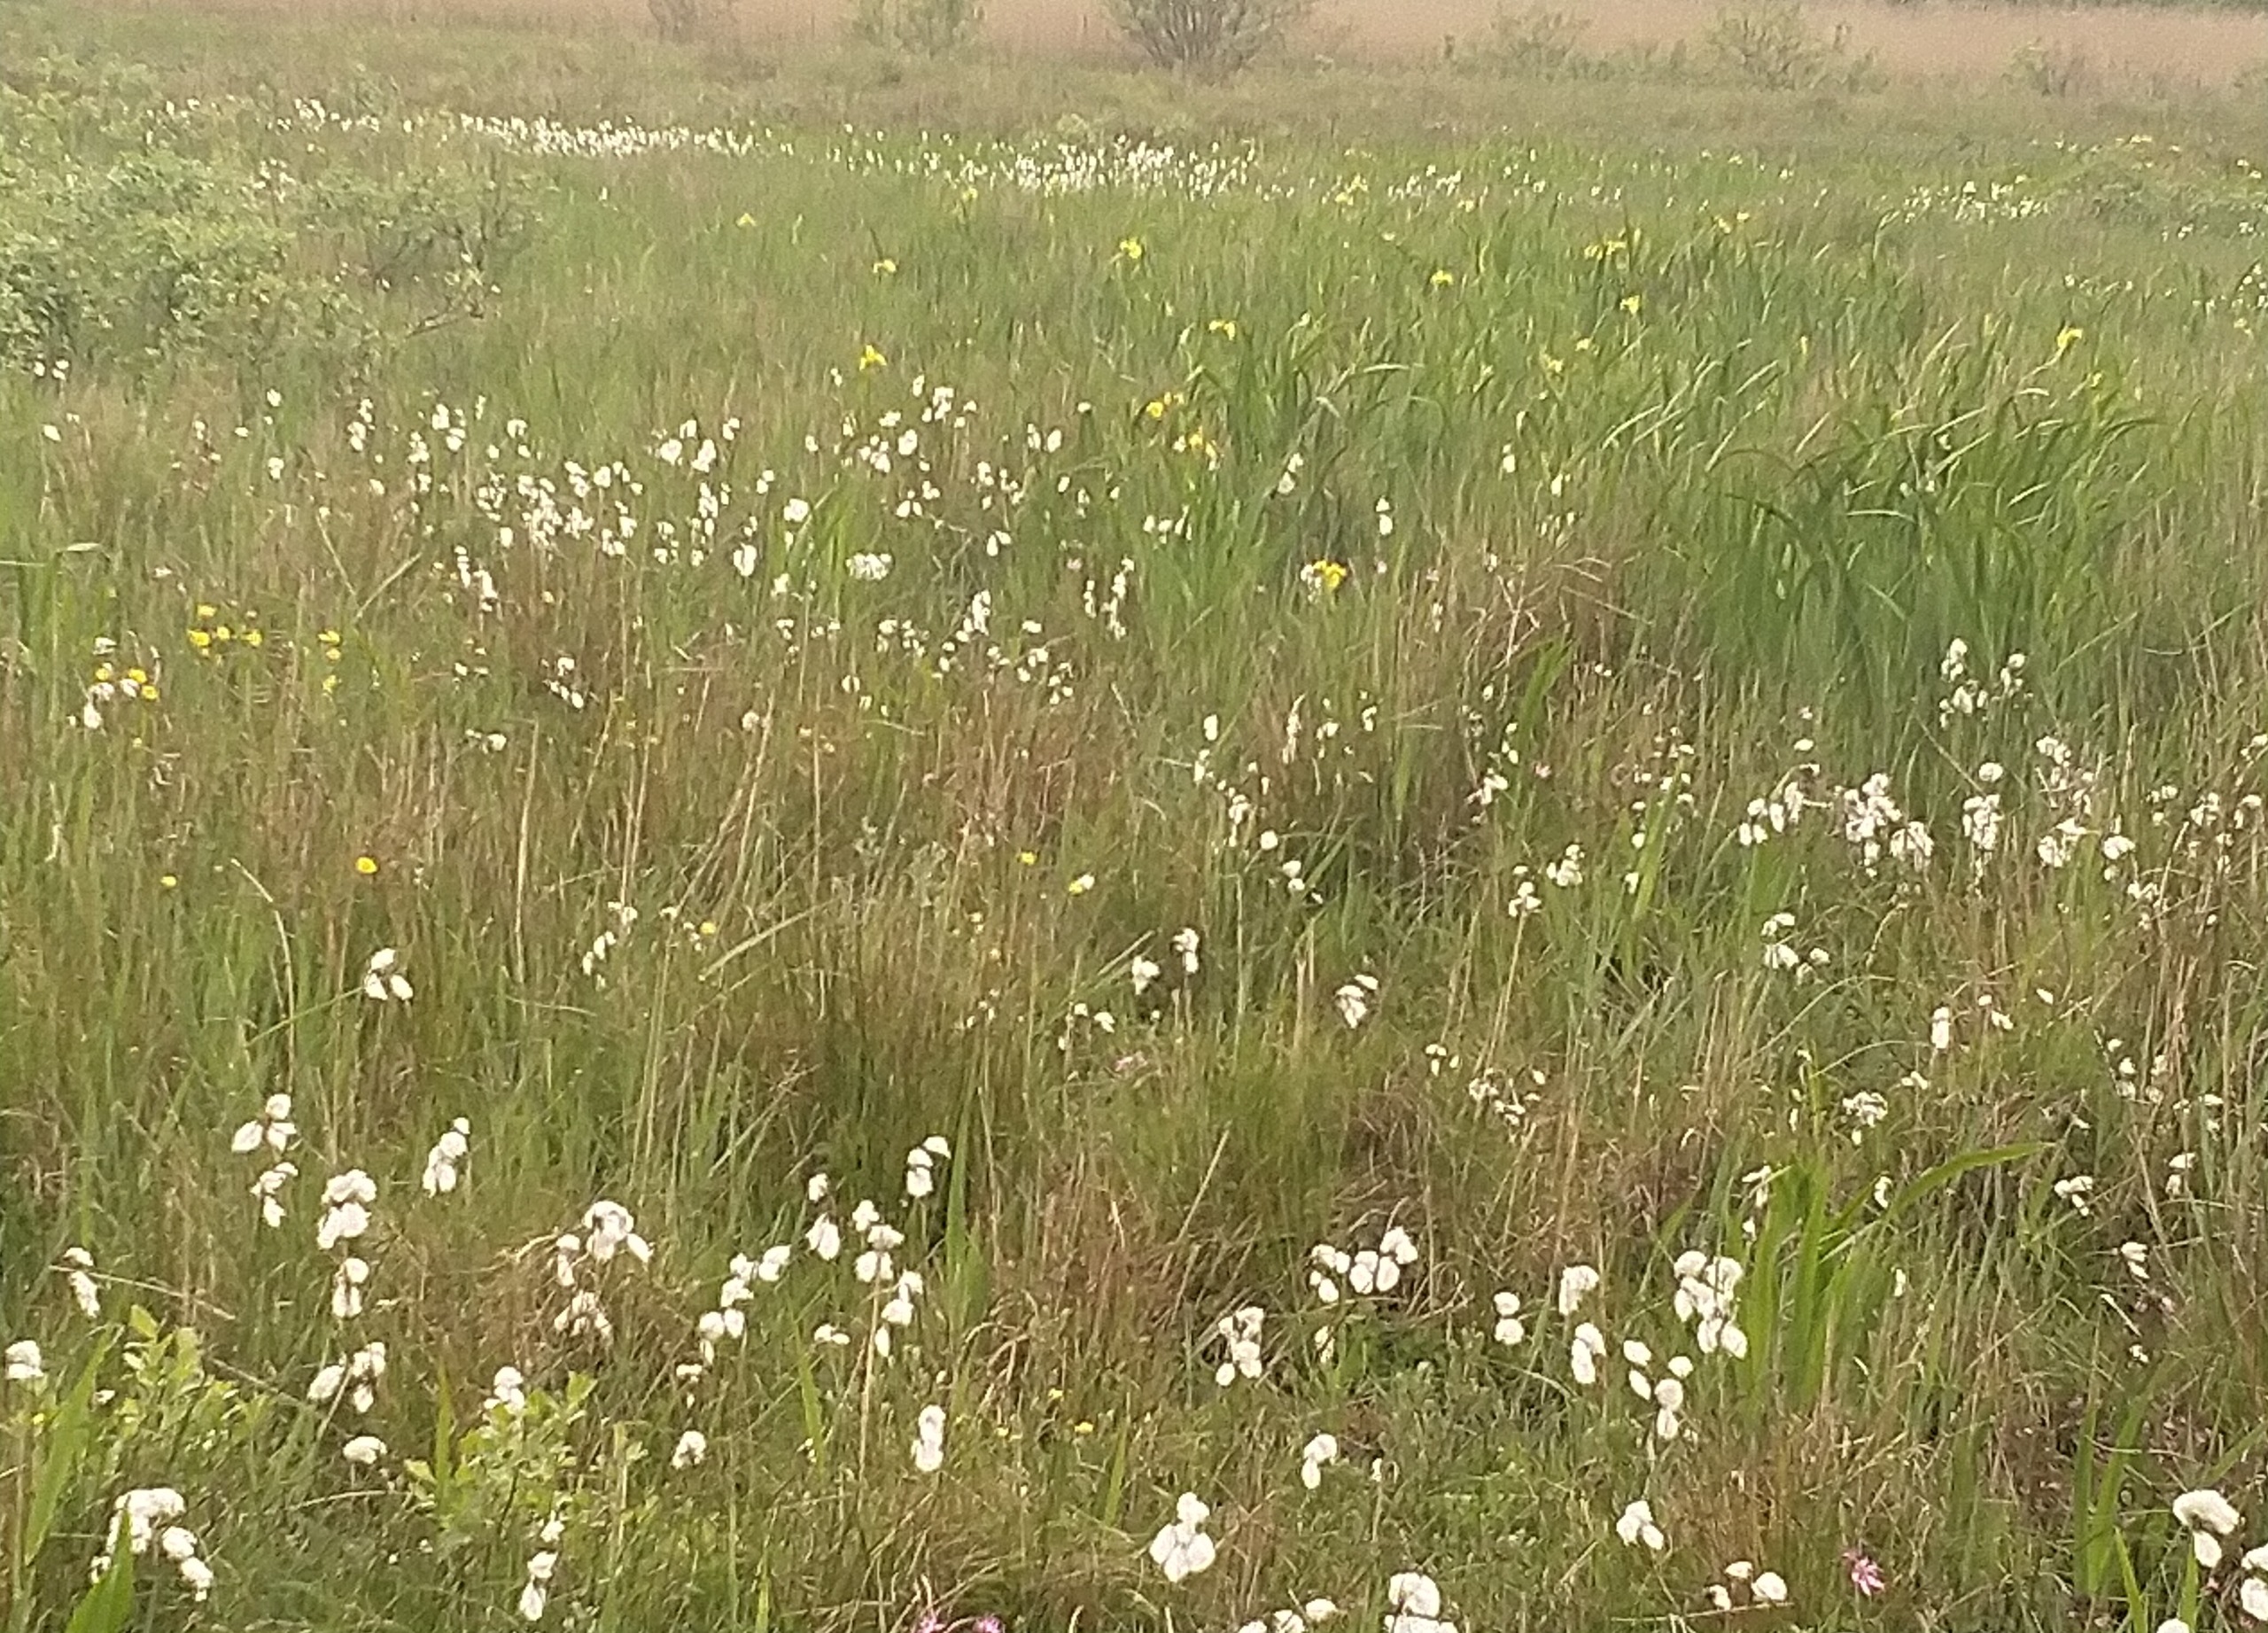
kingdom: Plantae
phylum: Tracheophyta
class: Liliopsida
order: Asparagales
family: Iridaceae
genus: Iris
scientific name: Iris pseudacorus
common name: Gul iris
